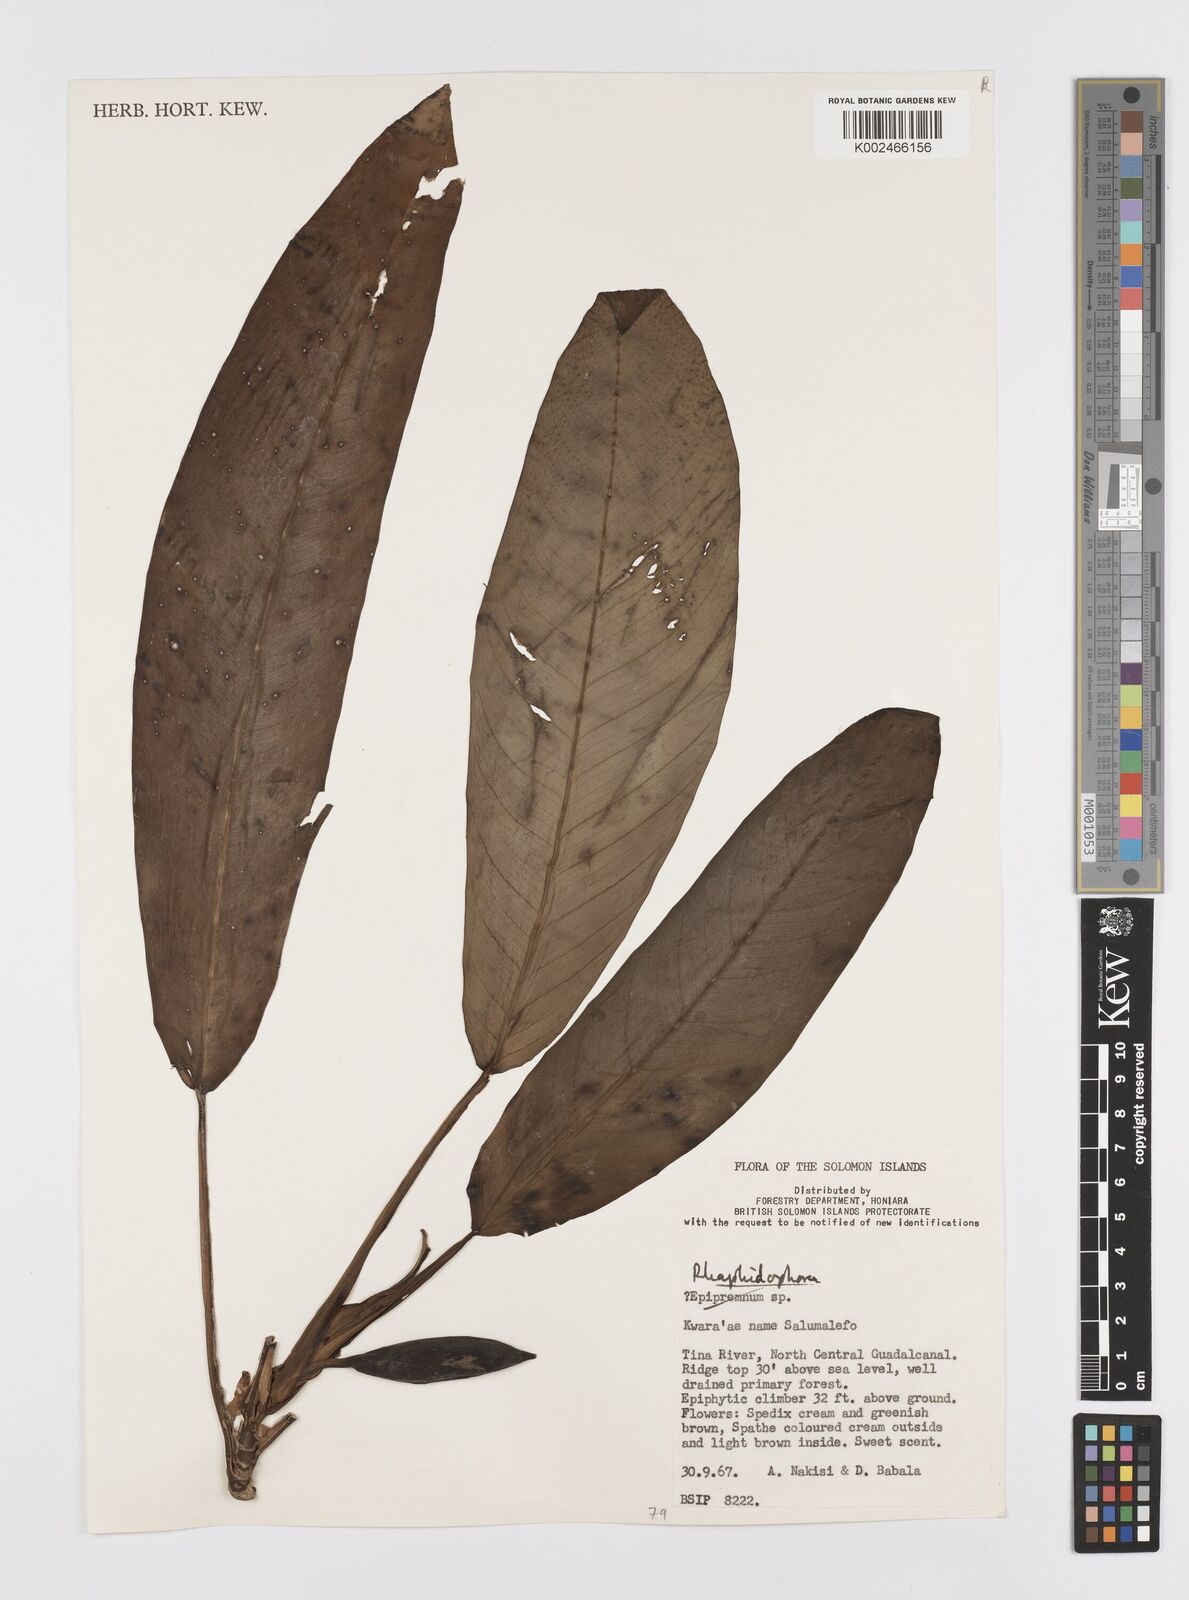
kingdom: Plantae
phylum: Tracheophyta
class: Liliopsida
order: Alismatales
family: Araceae
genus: Rhaphidophora
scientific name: Rhaphidophora schlechteri
